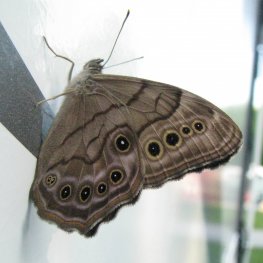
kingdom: Animalia
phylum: Arthropoda
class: Insecta
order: Lepidoptera
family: Nymphalidae
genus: Lethe
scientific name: Lethe anthedon
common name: Northern Pearly-Eye
